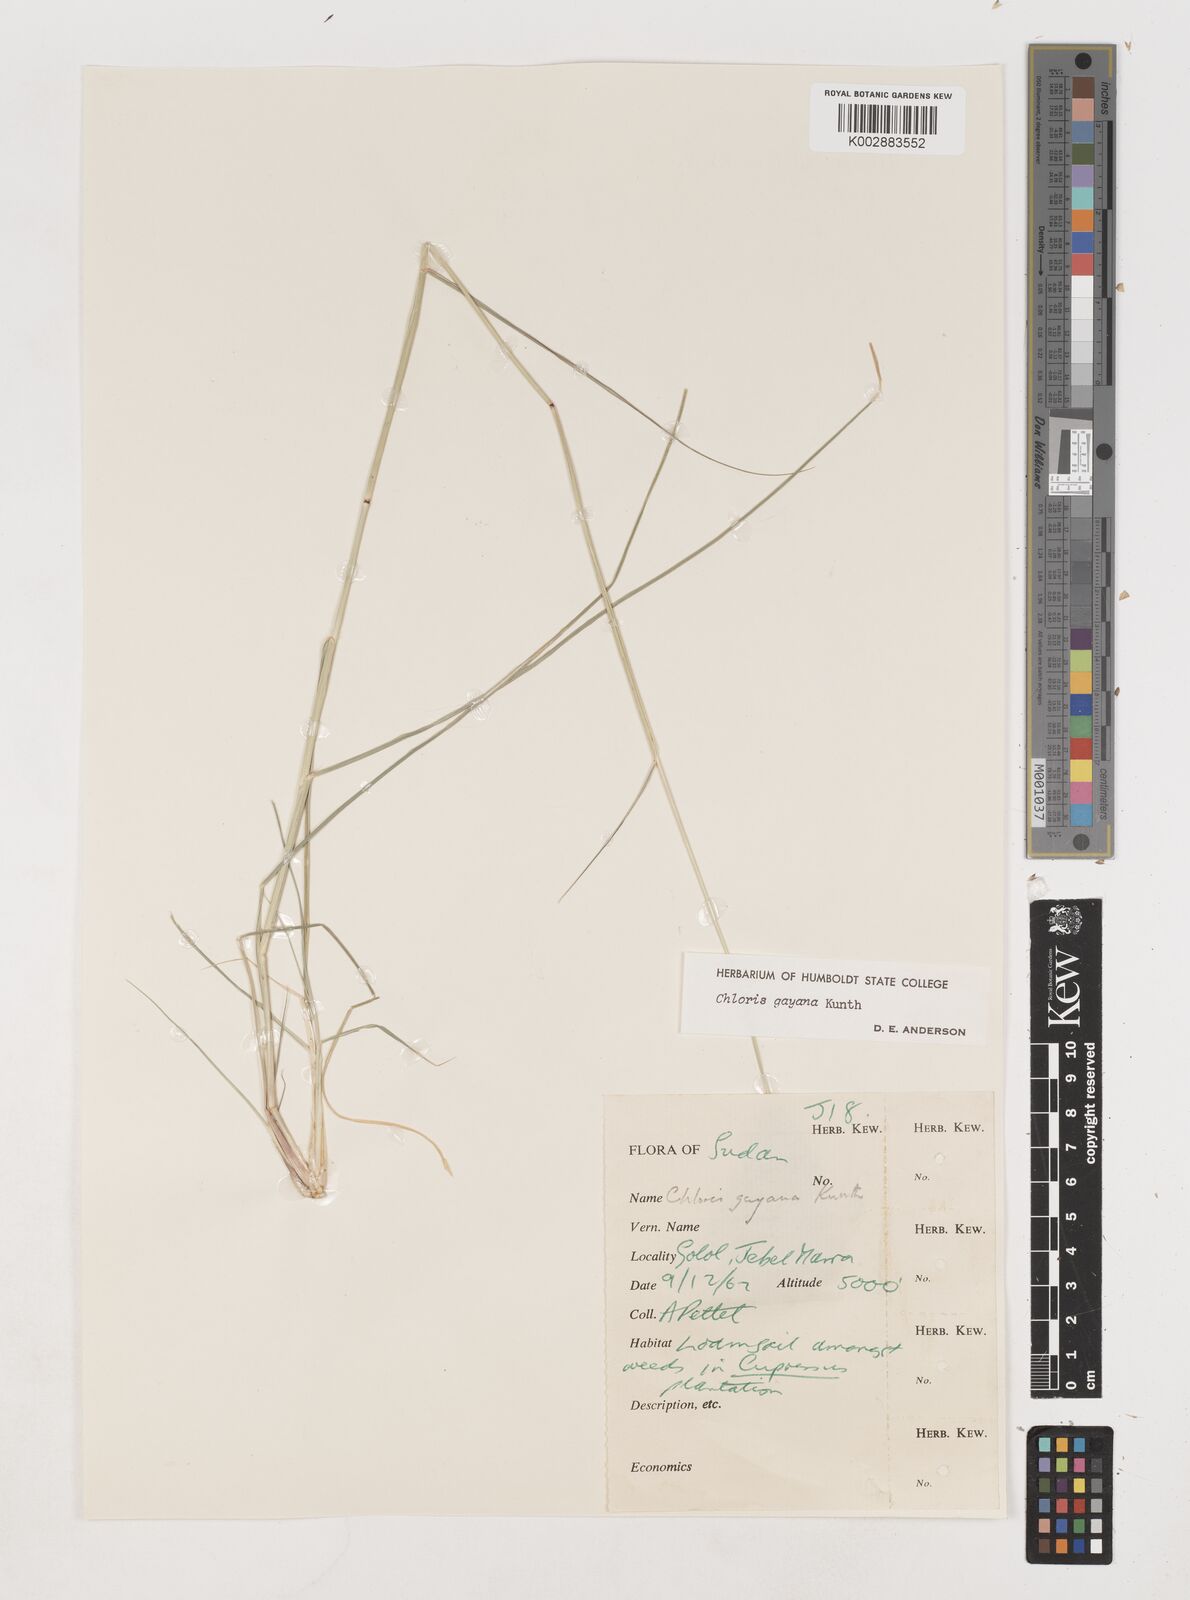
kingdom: Plantae
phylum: Tracheophyta
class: Liliopsida
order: Poales
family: Poaceae
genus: Chloris
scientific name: Chloris gayana
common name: Rhodes grass
